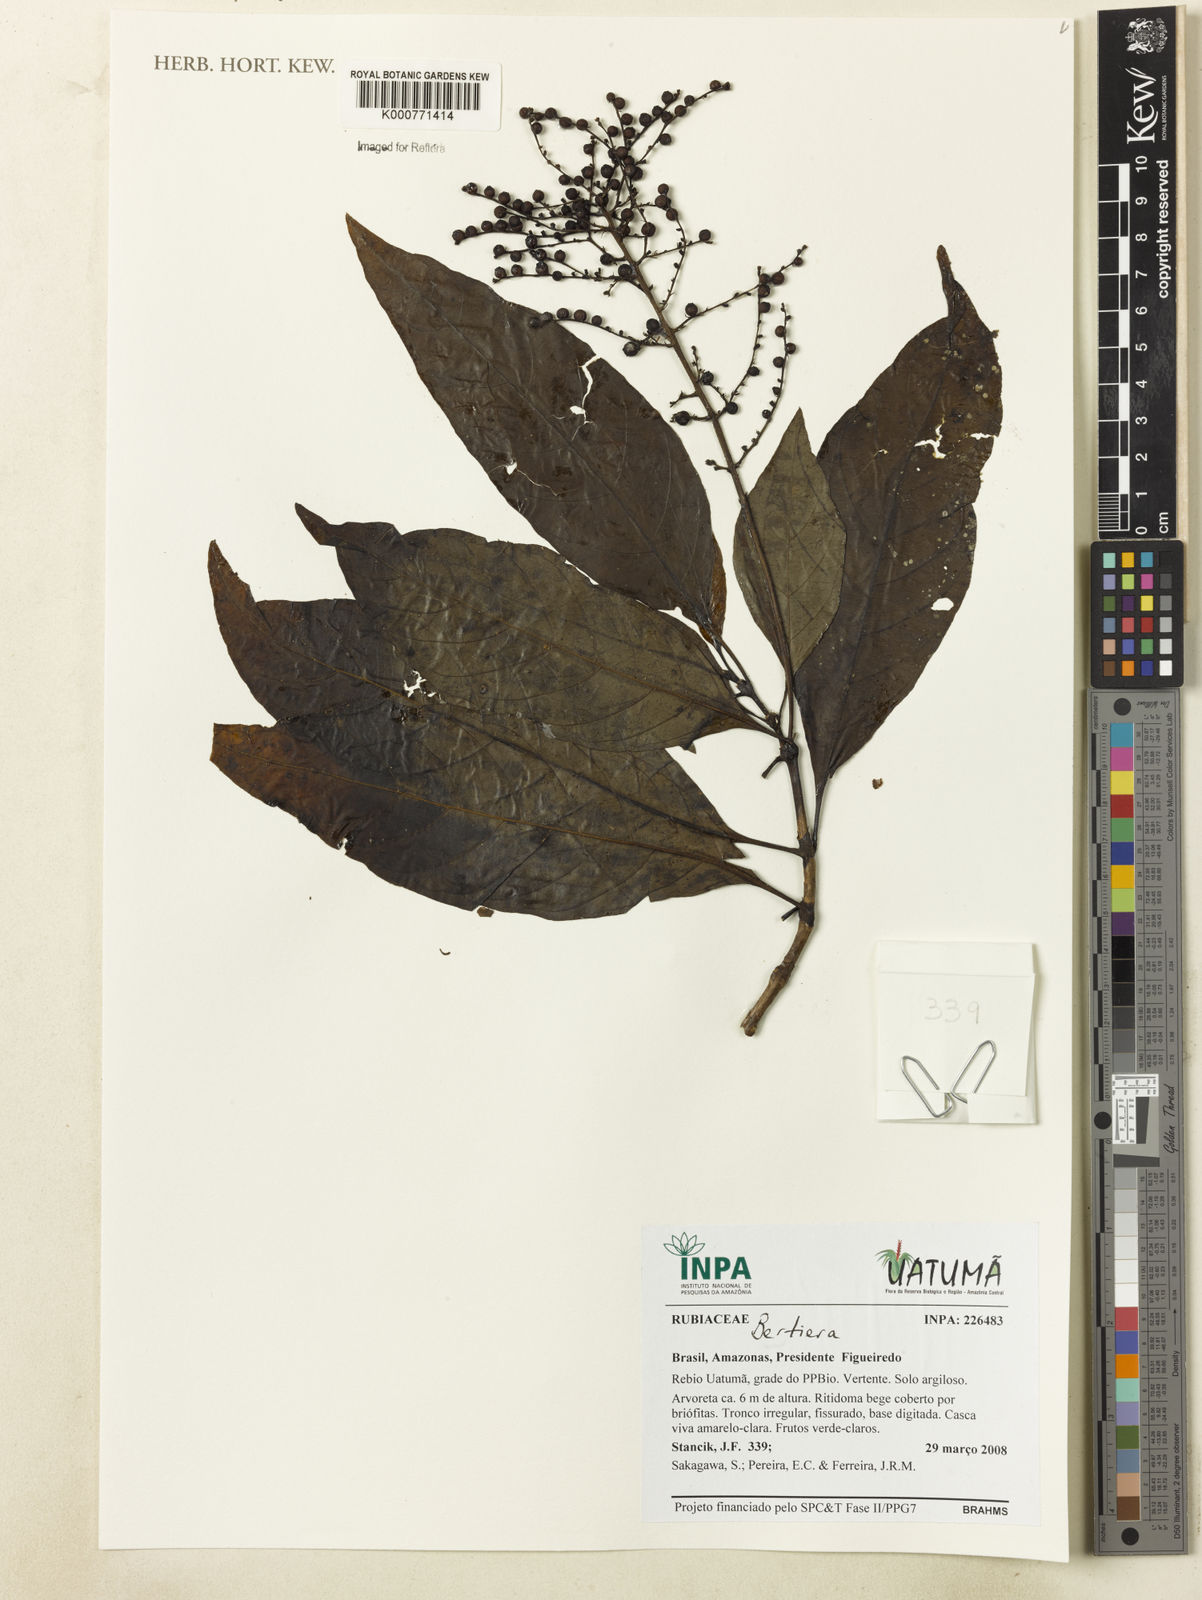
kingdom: Plantae
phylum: Tracheophyta
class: Magnoliopsida
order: Gentianales
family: Rubiaceae
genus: Psychotria
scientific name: Psychotria
